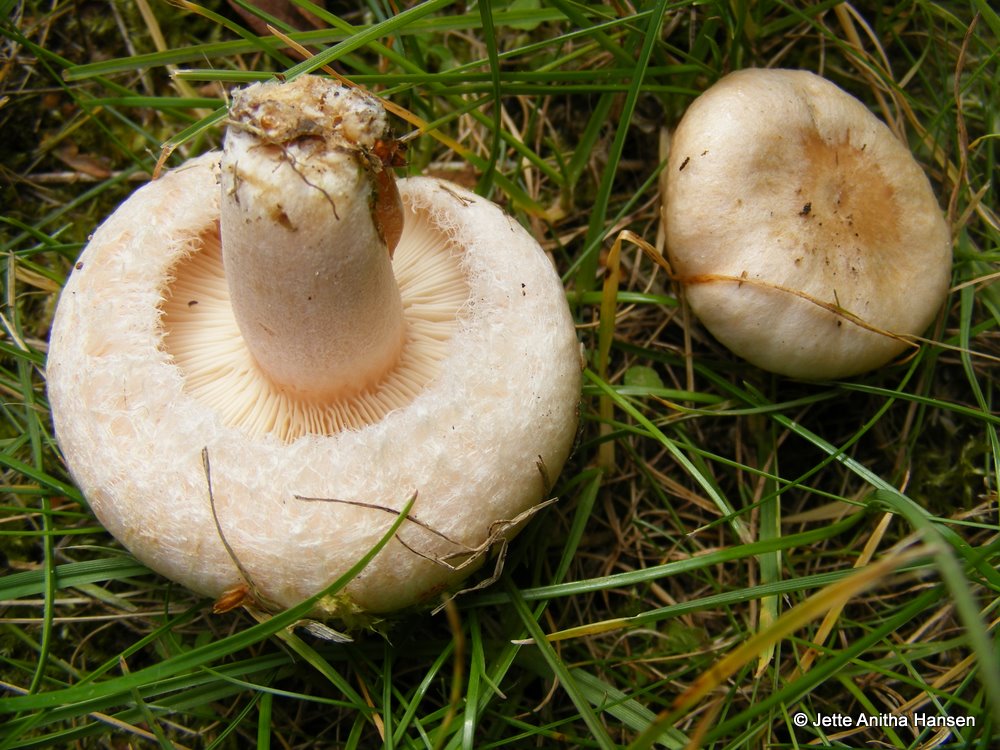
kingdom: Fungi
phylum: Basidiomycota
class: Agaricomycetes
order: Russulales
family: Russulaceae
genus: Lactarius
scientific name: Lactarius pubescens
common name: dunet mælkehat
